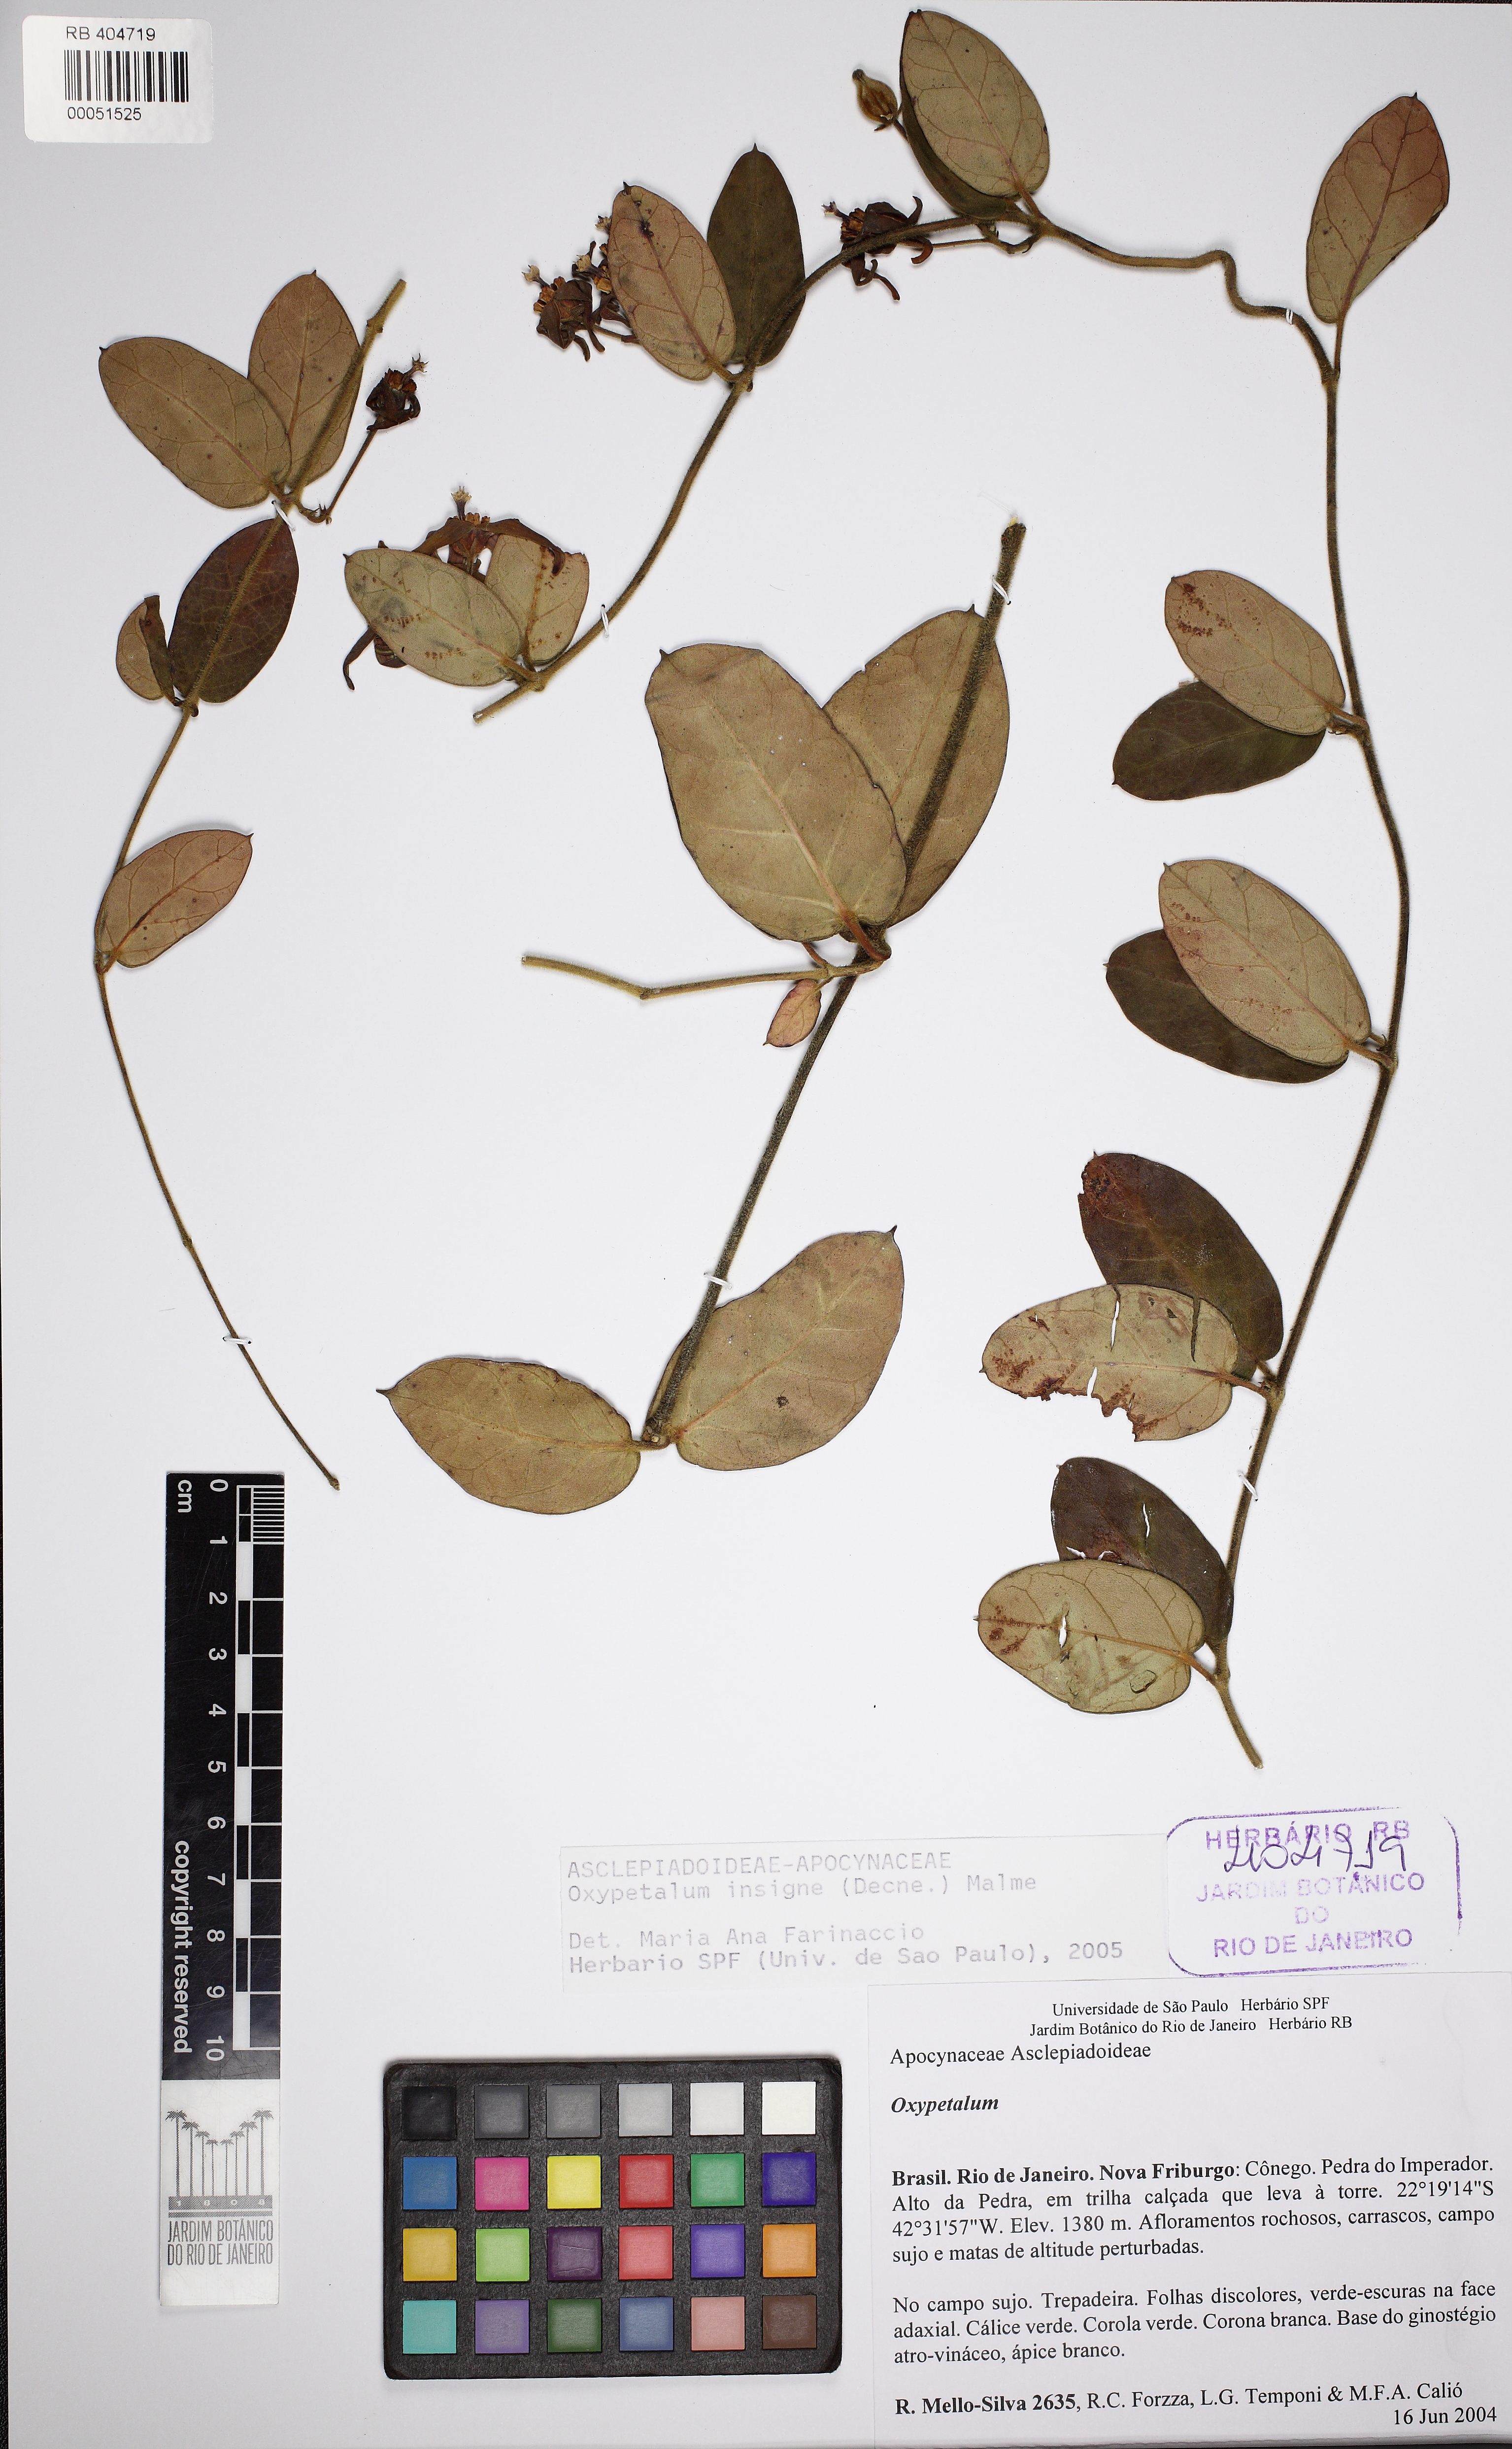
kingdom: Plantae
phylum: Tracheophyta
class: Magnoliopsida
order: Gentianales
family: Apocynaceae
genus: Oxypetalum
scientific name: Oxypetalum insigne
